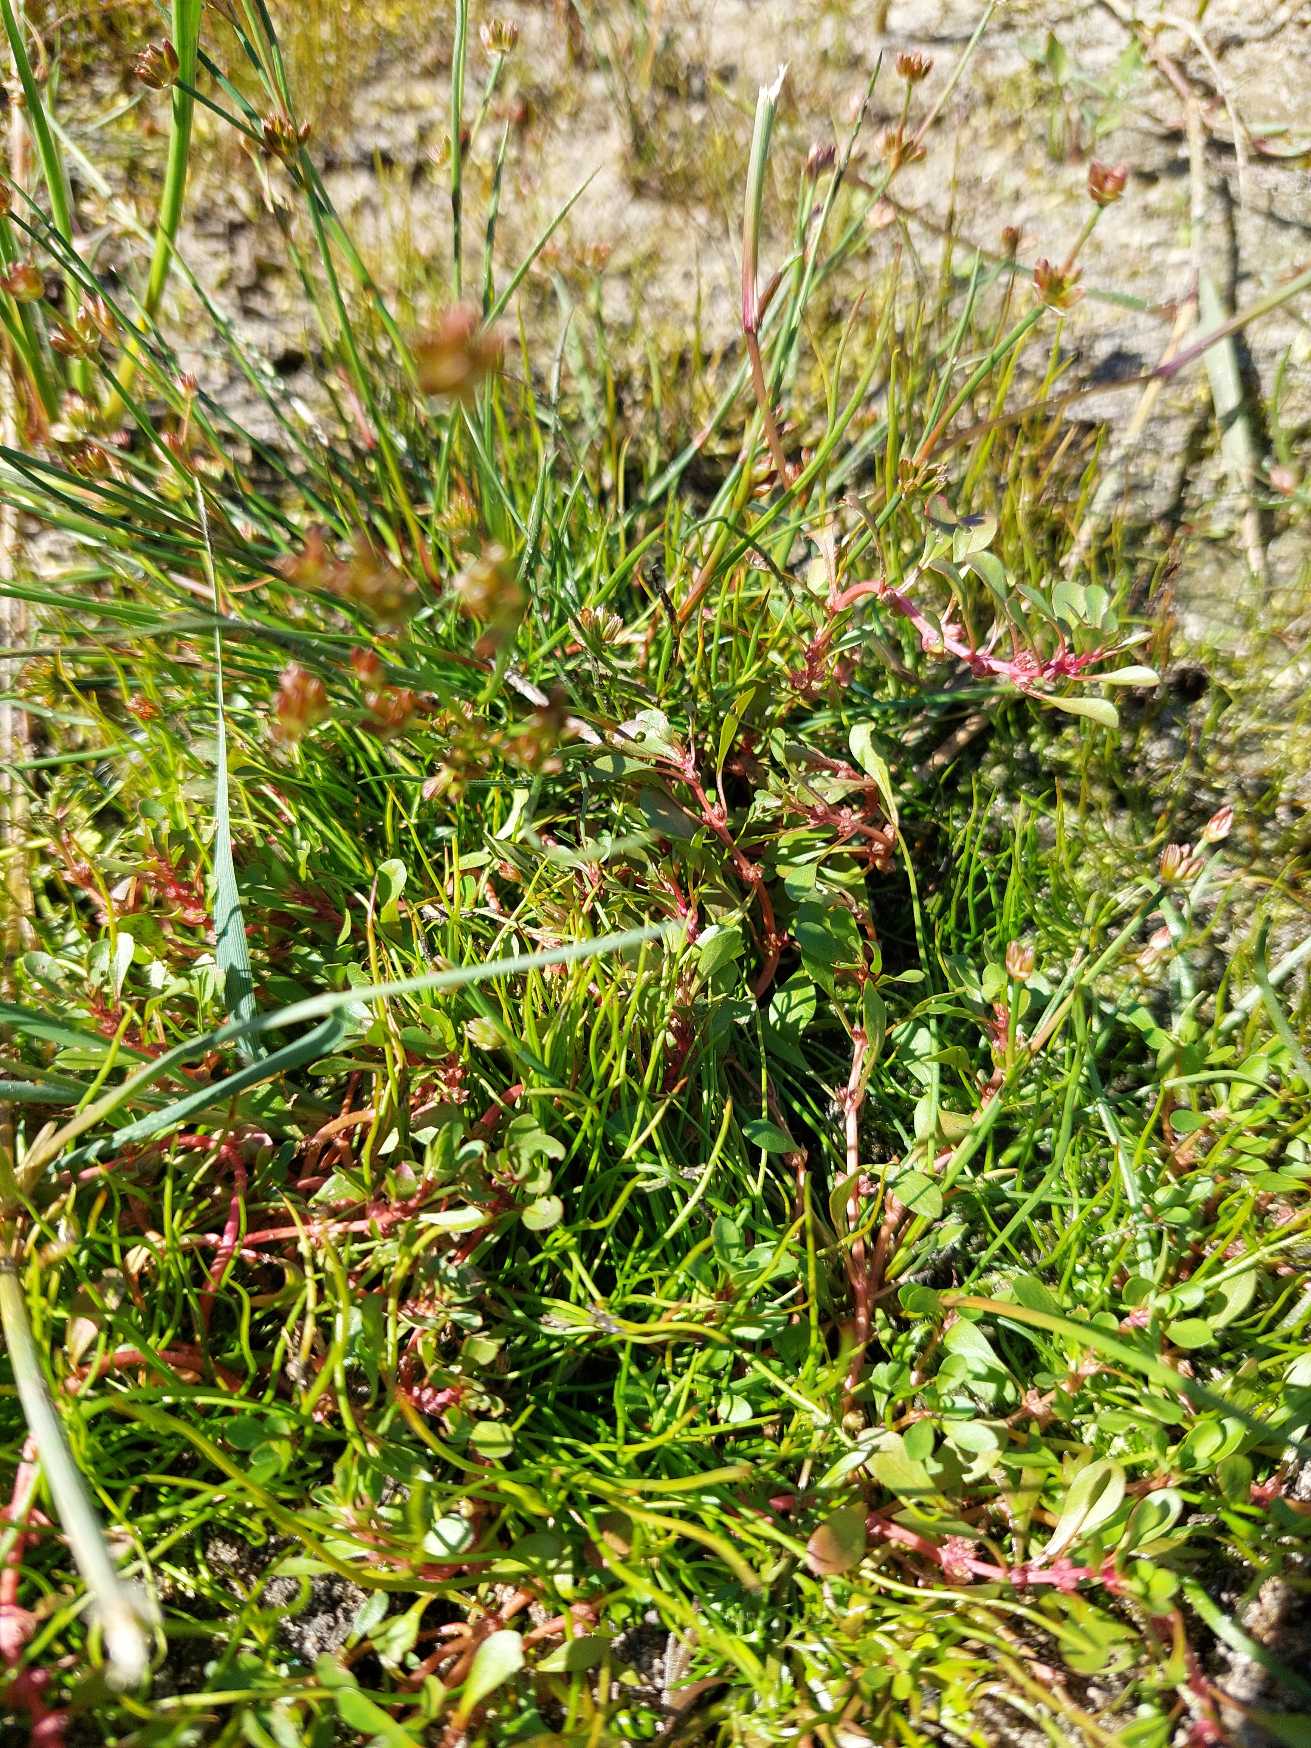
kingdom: Plantae
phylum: Tracheophyta
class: Magnoliopsida
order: Myrtales
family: Lythraceae
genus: Lythrum
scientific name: Lythrum portula
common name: Vandportulak
